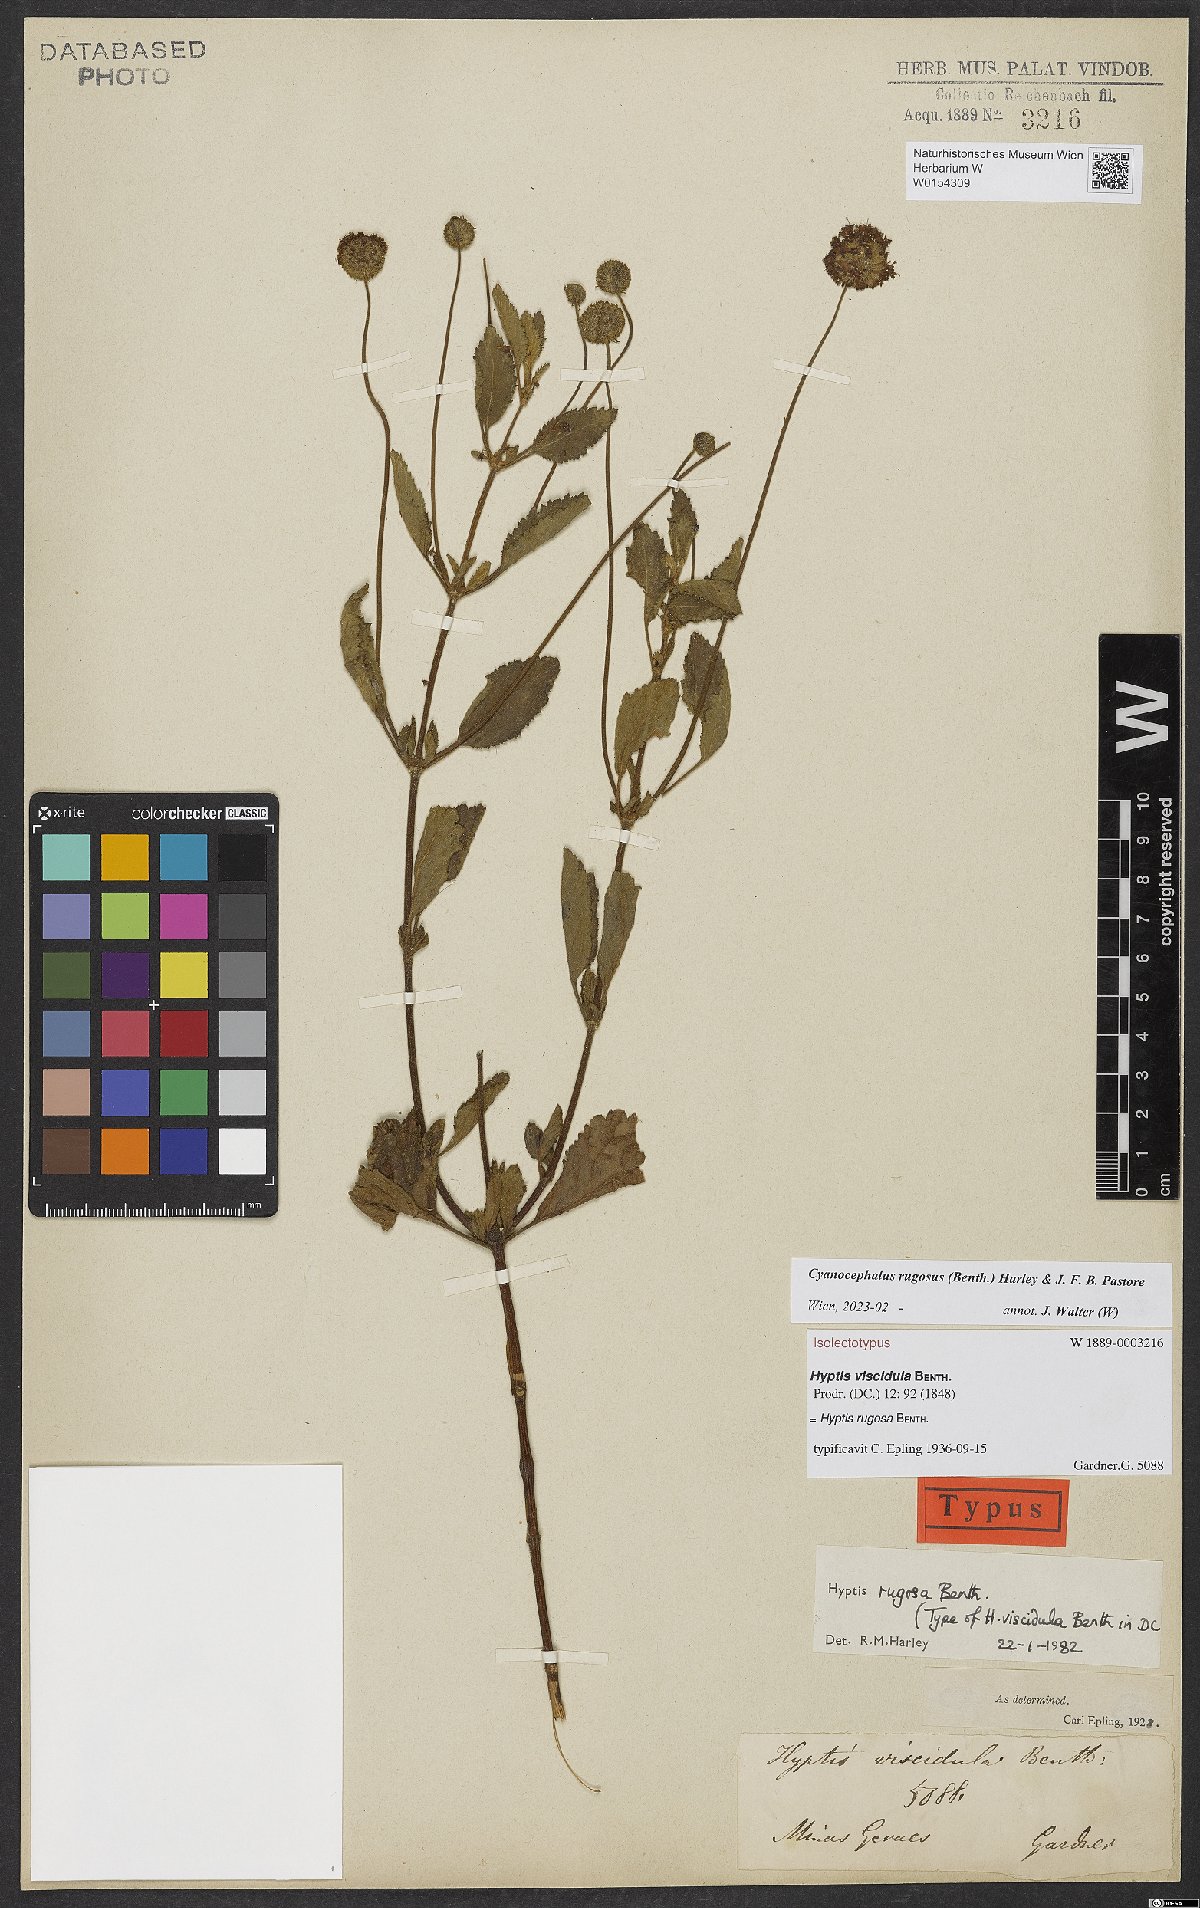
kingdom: Plantae
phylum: Tracheophyta
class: Magnoliopsida
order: Lamiales
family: Lamiaceae
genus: Cyanocephalus
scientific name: Cyanocephalus rugosus
